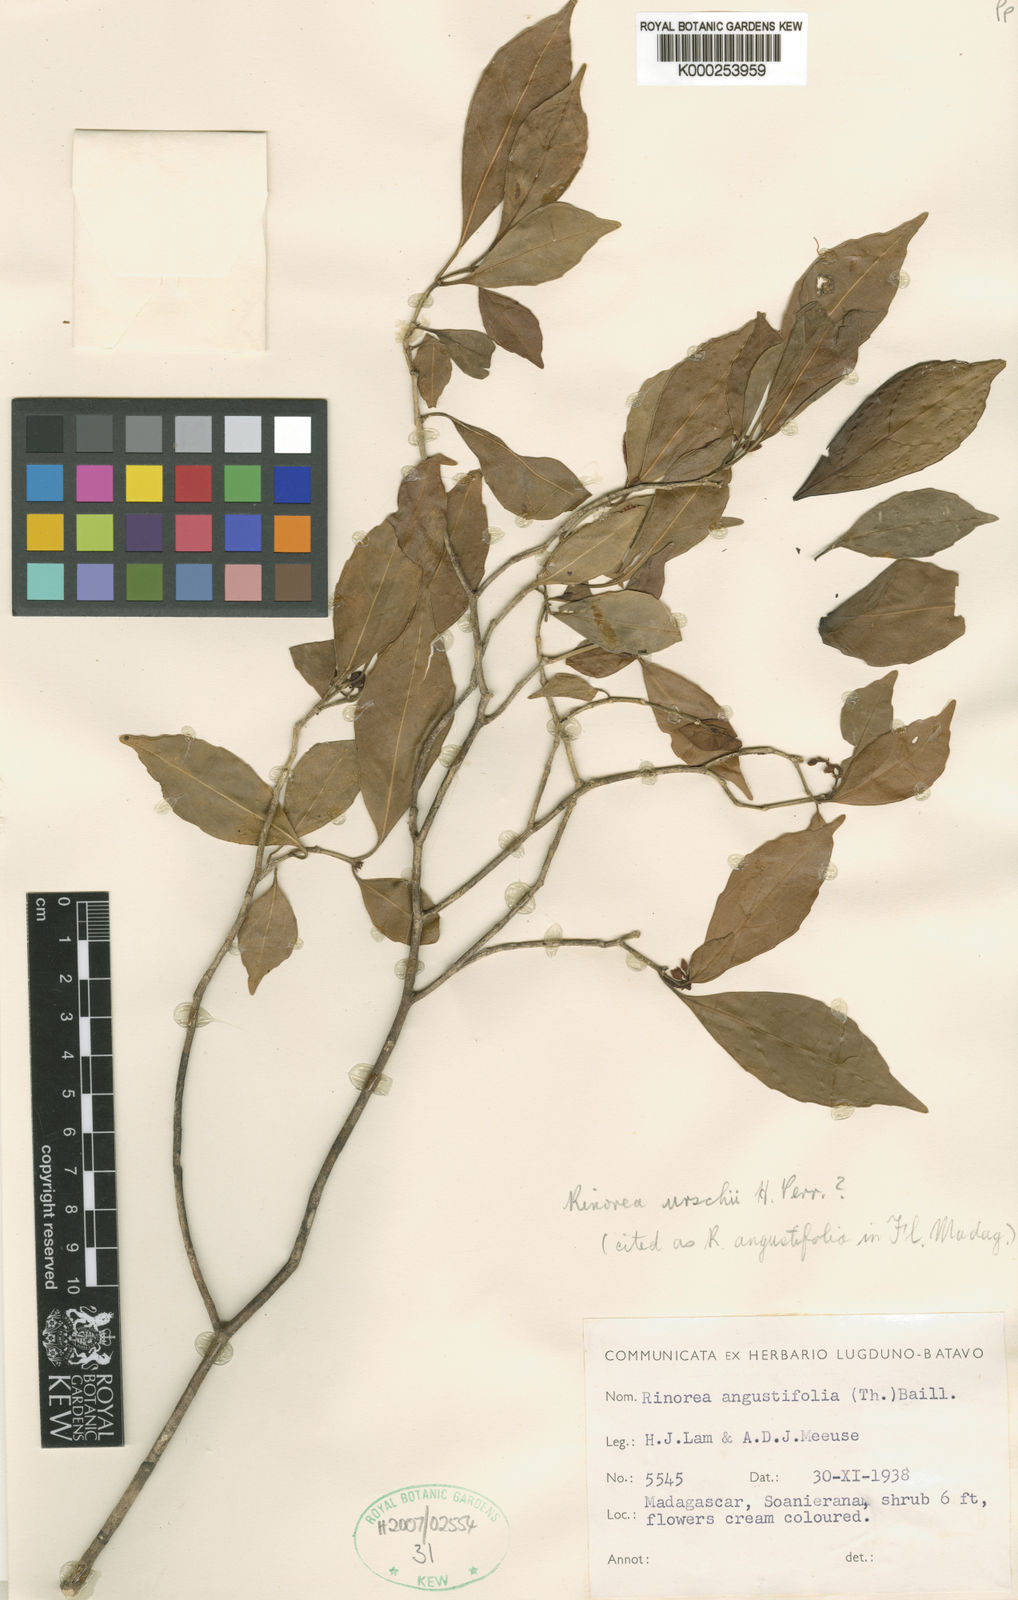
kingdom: Plantae
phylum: Tracheophyta
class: Magnoliopsida
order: Malpighiales
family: Violaceae
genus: Rinorea
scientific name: Rinorea urschii
